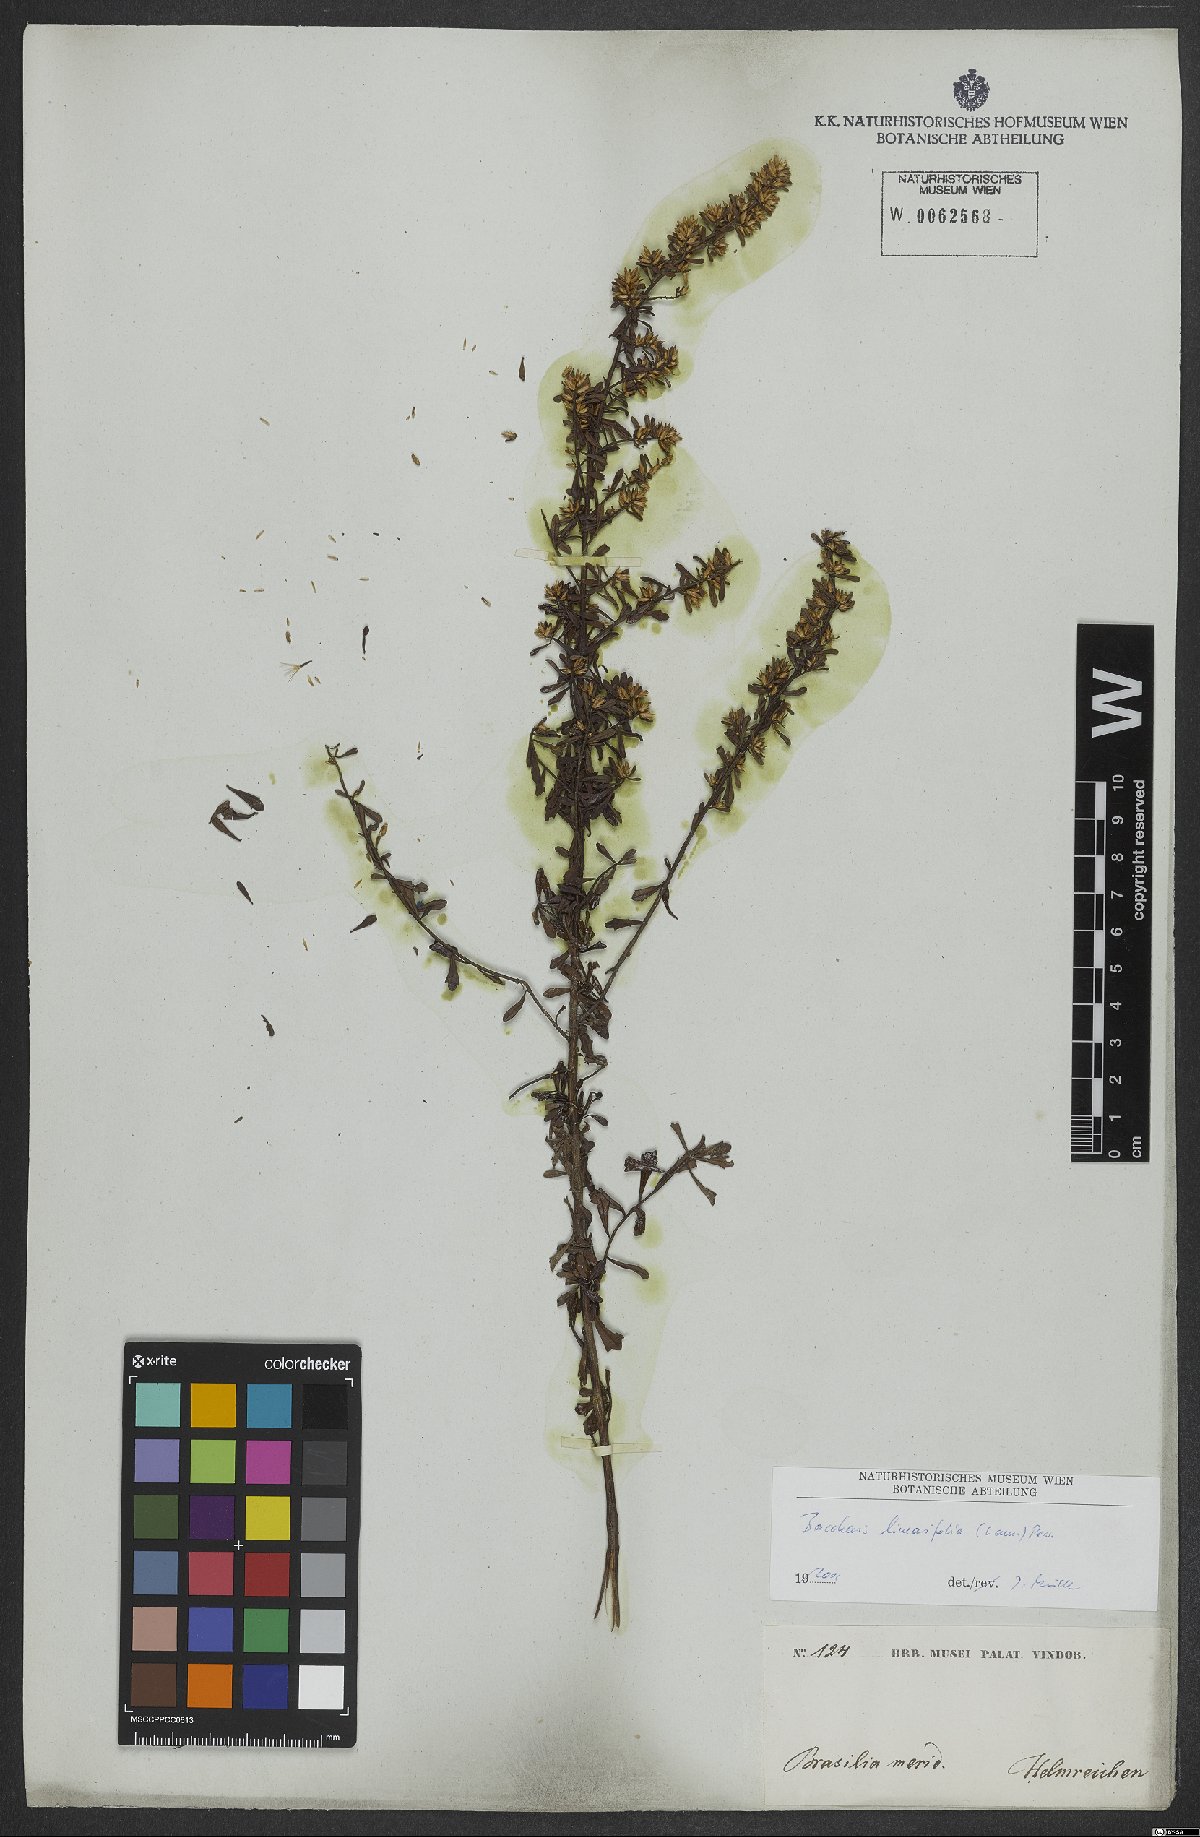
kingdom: Plantae
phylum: Tracheophyta
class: Magnoliopsida
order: Asterales
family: Asteraceae
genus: Baccharis
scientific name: Baccharis linearifolia
